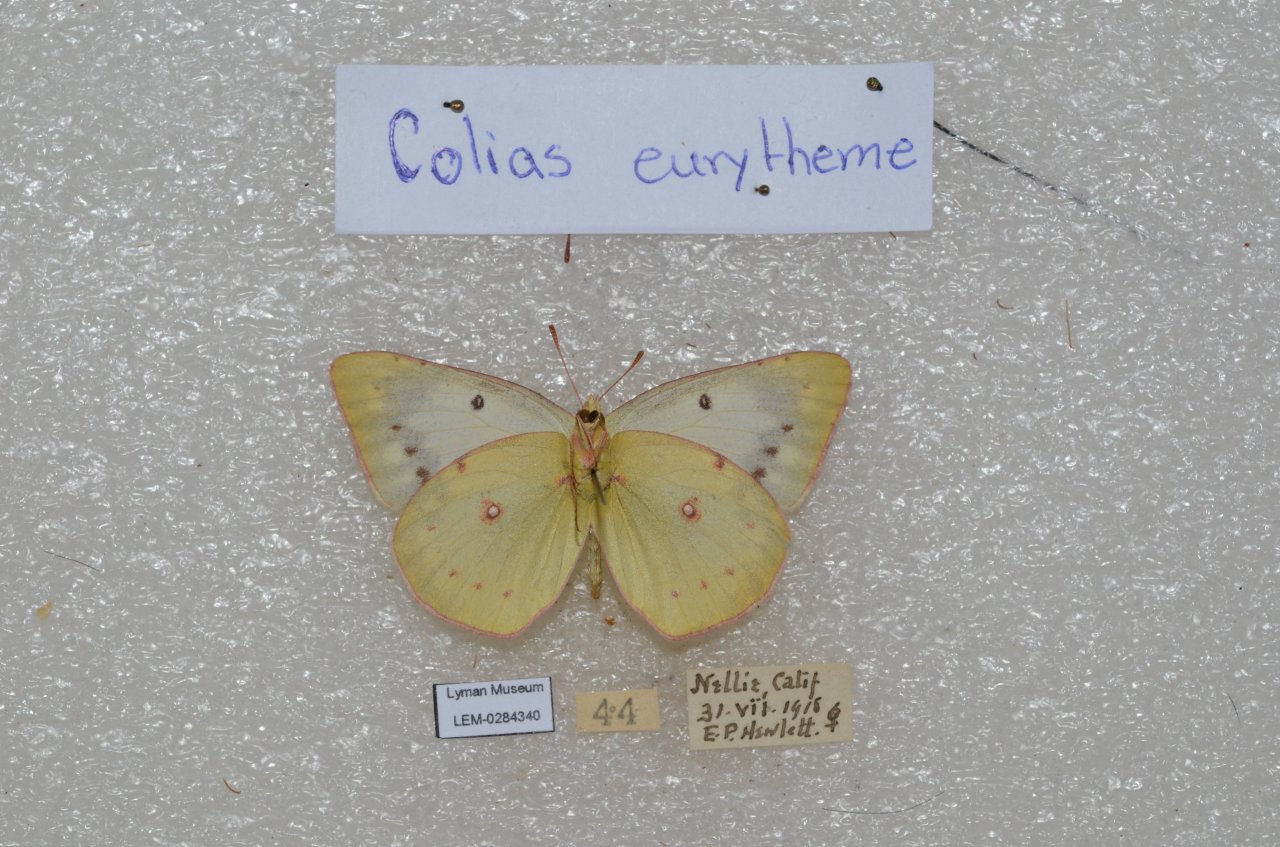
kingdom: Animalia
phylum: Arthropoda
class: Insecta
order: Lepidoptera
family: Pieridae
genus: Colias
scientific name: Colias eurytheme
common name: Orange Sulphur
